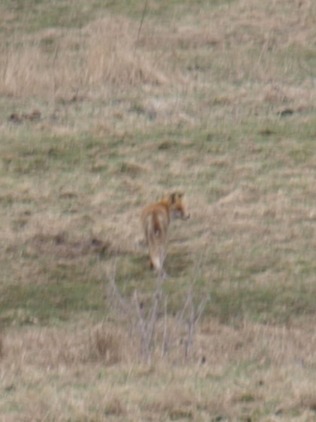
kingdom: Animalia
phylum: Chordata
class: Mammalia
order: Carnivora
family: Canidae
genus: Vulpes
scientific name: Vulpes vulpes
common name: Ræv
